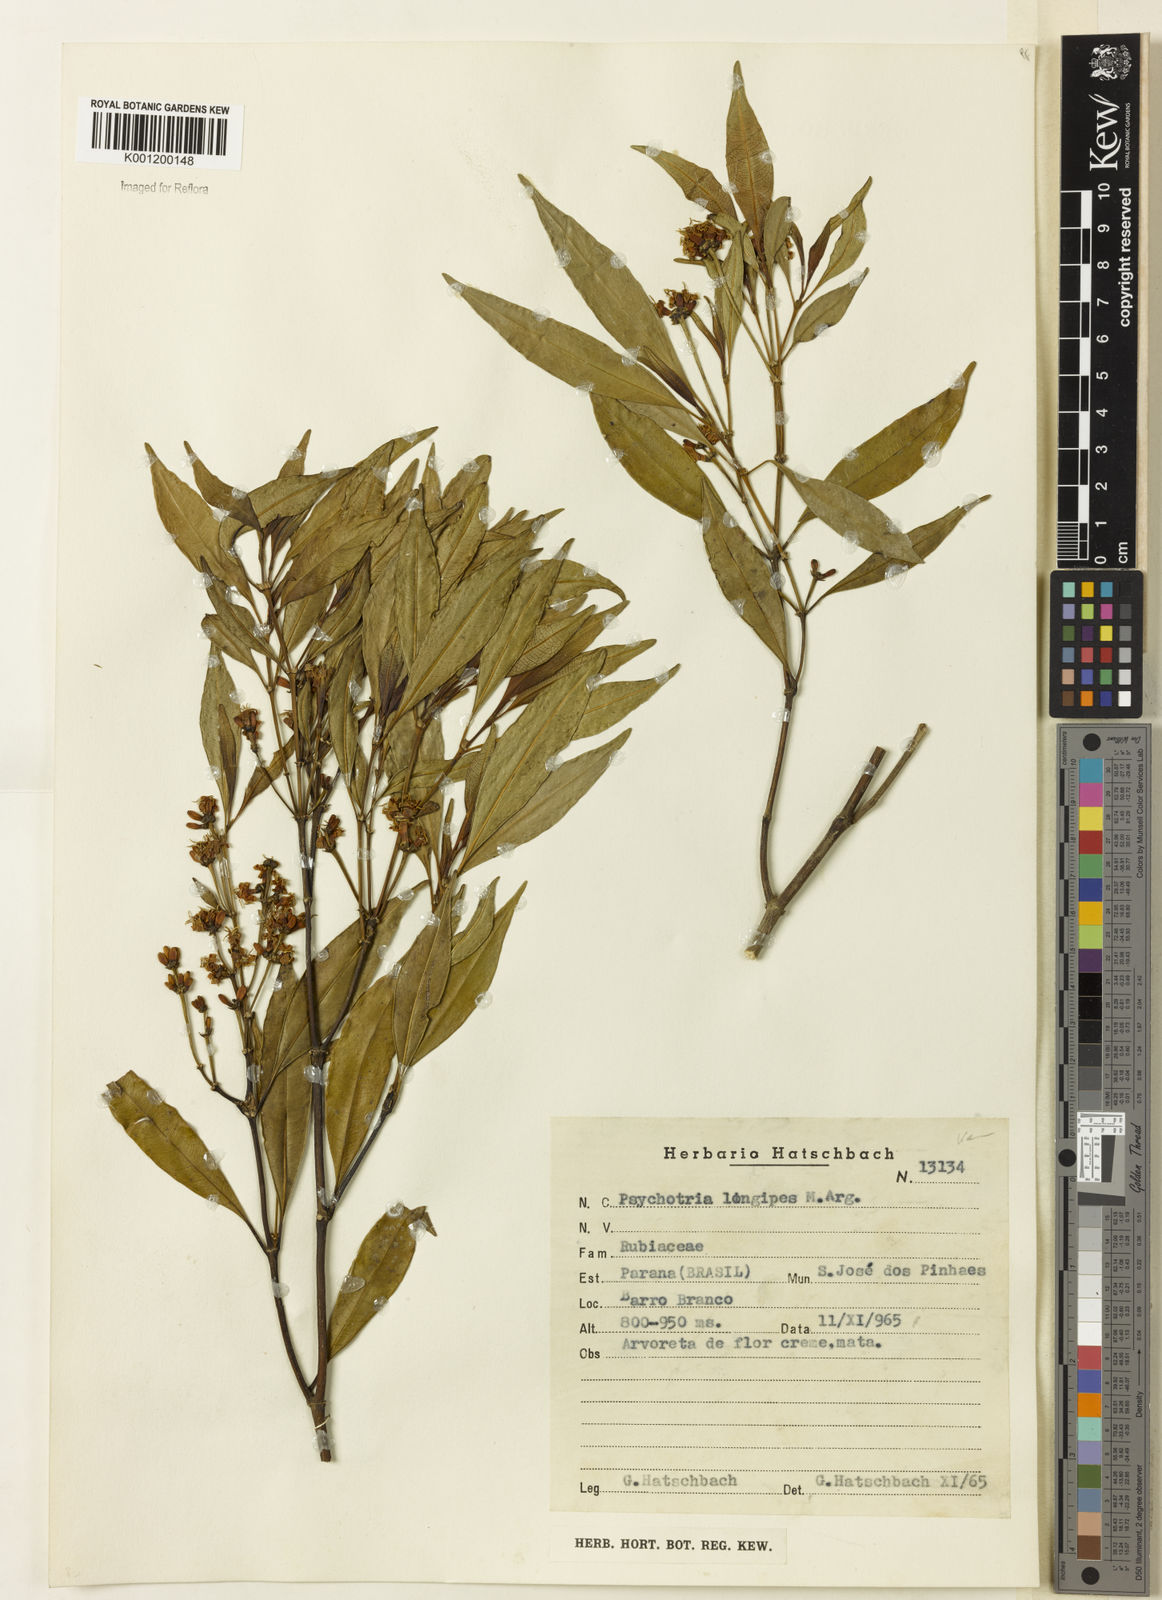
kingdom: Plantae
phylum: Tracheophyta
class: Magnoliopsida
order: Gentianales
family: Rubiaceae
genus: Rudgea
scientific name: Rudgea sessilis
